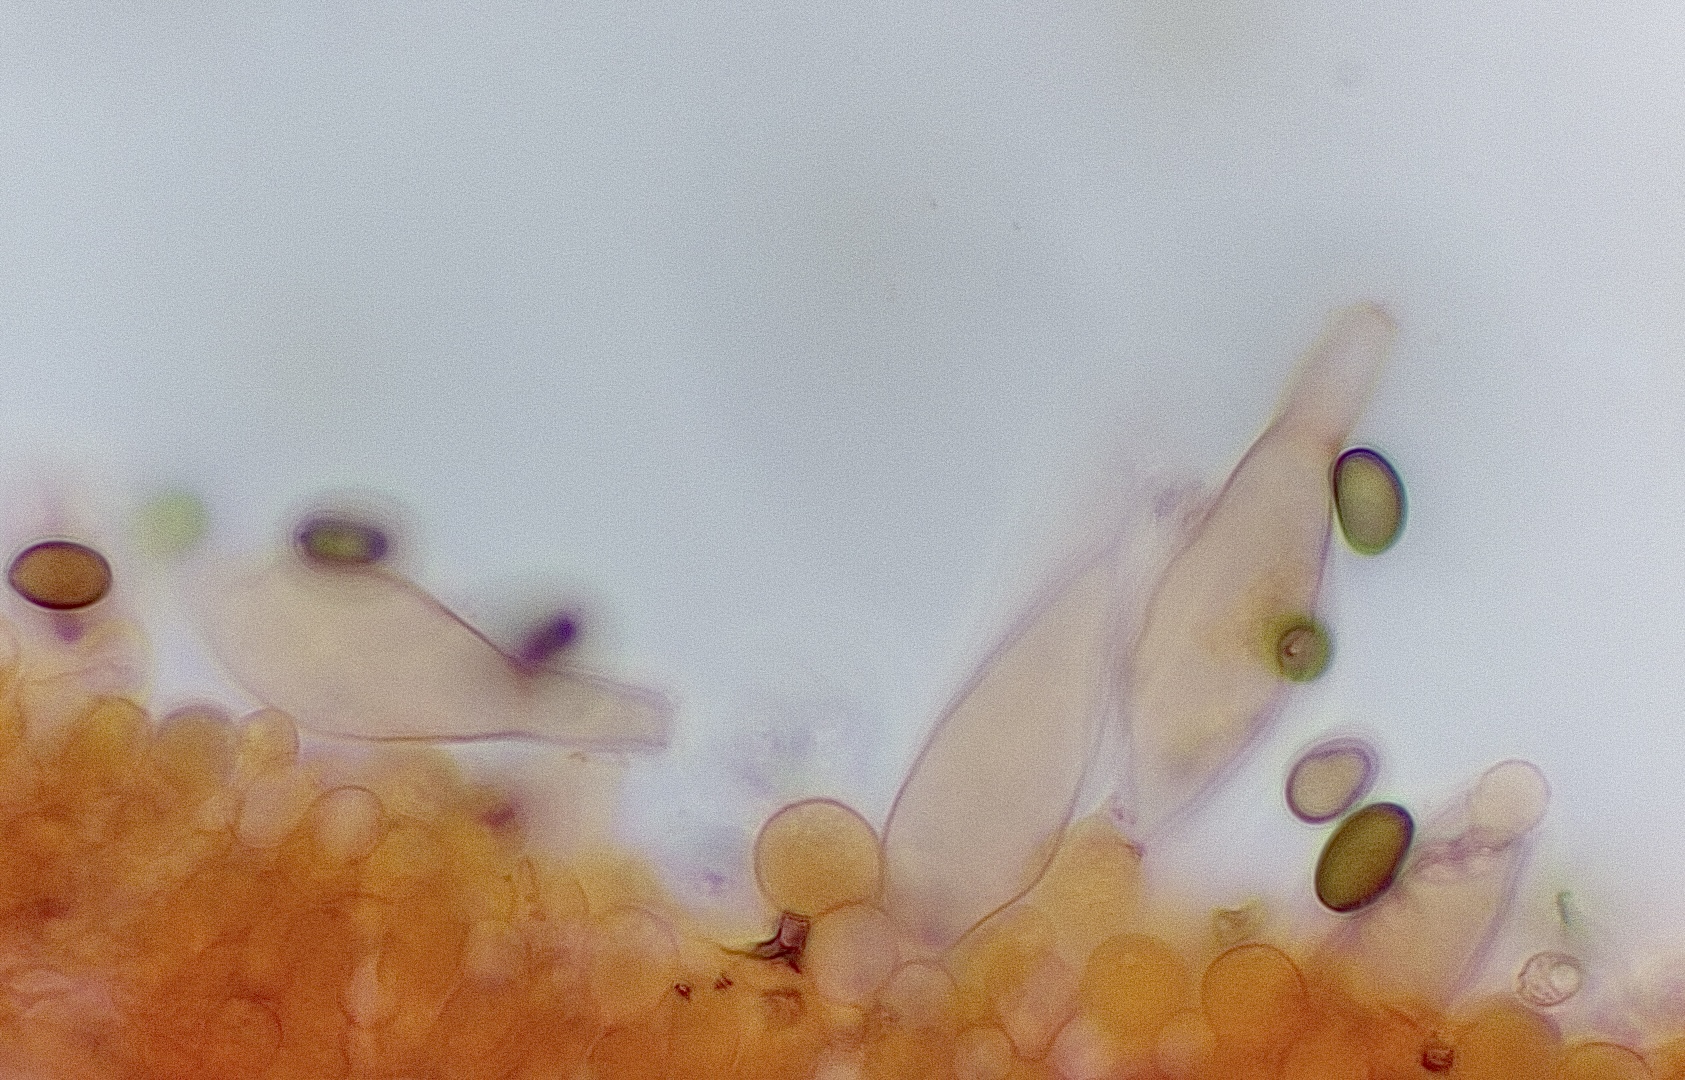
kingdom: Fungi
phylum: Basidiomycota
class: Agaricomycetes
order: Agaricales
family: Psathyrellaceae
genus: Psathyrella
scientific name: Psathyrella
